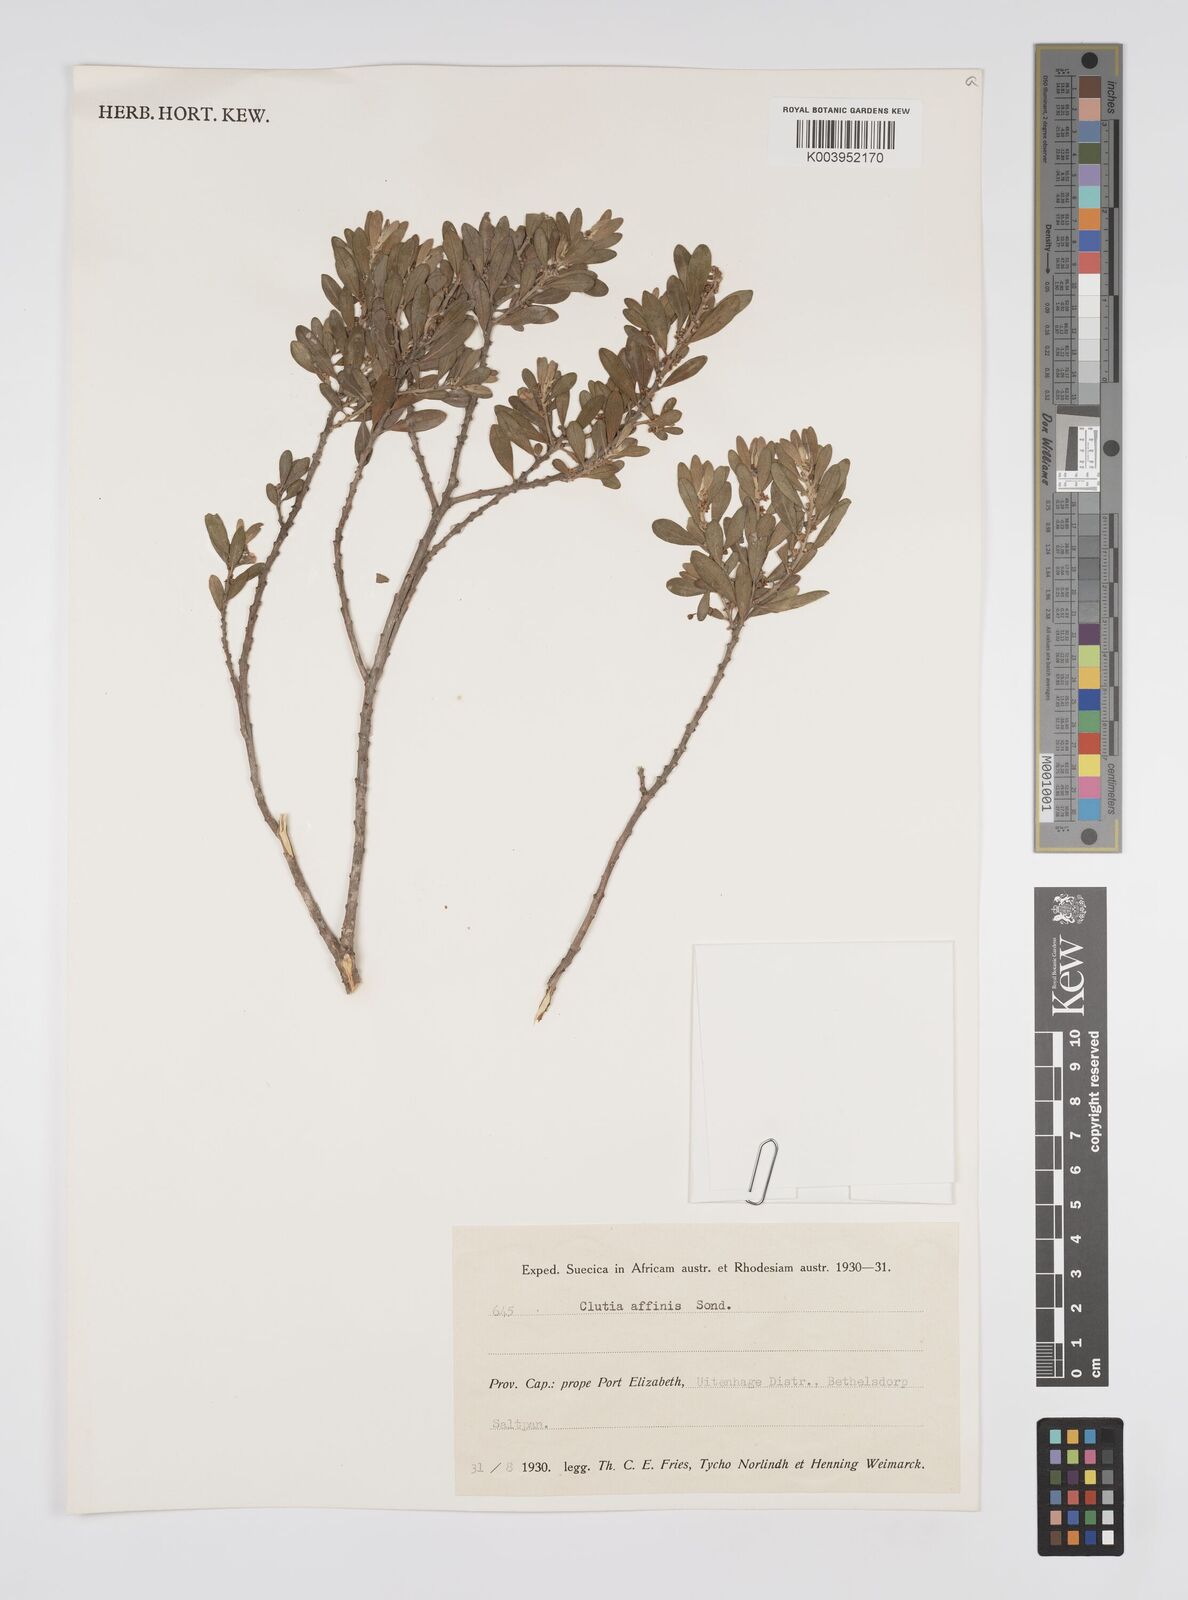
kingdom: Plantae
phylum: Tracheophyta
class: Magnoliopsida
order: Malpighiales
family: Peraceae
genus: Clutia
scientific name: Clutia affinis
